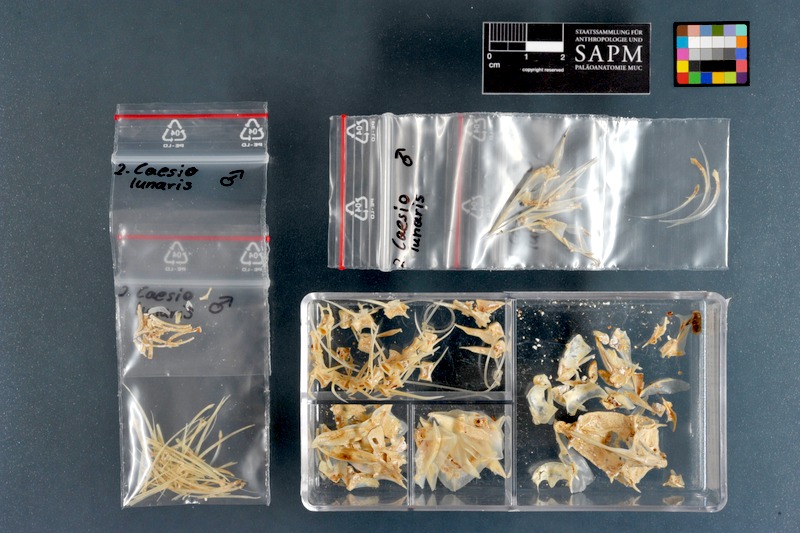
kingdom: Animalia
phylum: Chordata
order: Perciformes
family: Caesionidae
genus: Caesio
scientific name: Caesio lunaris
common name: Blue fusilier
